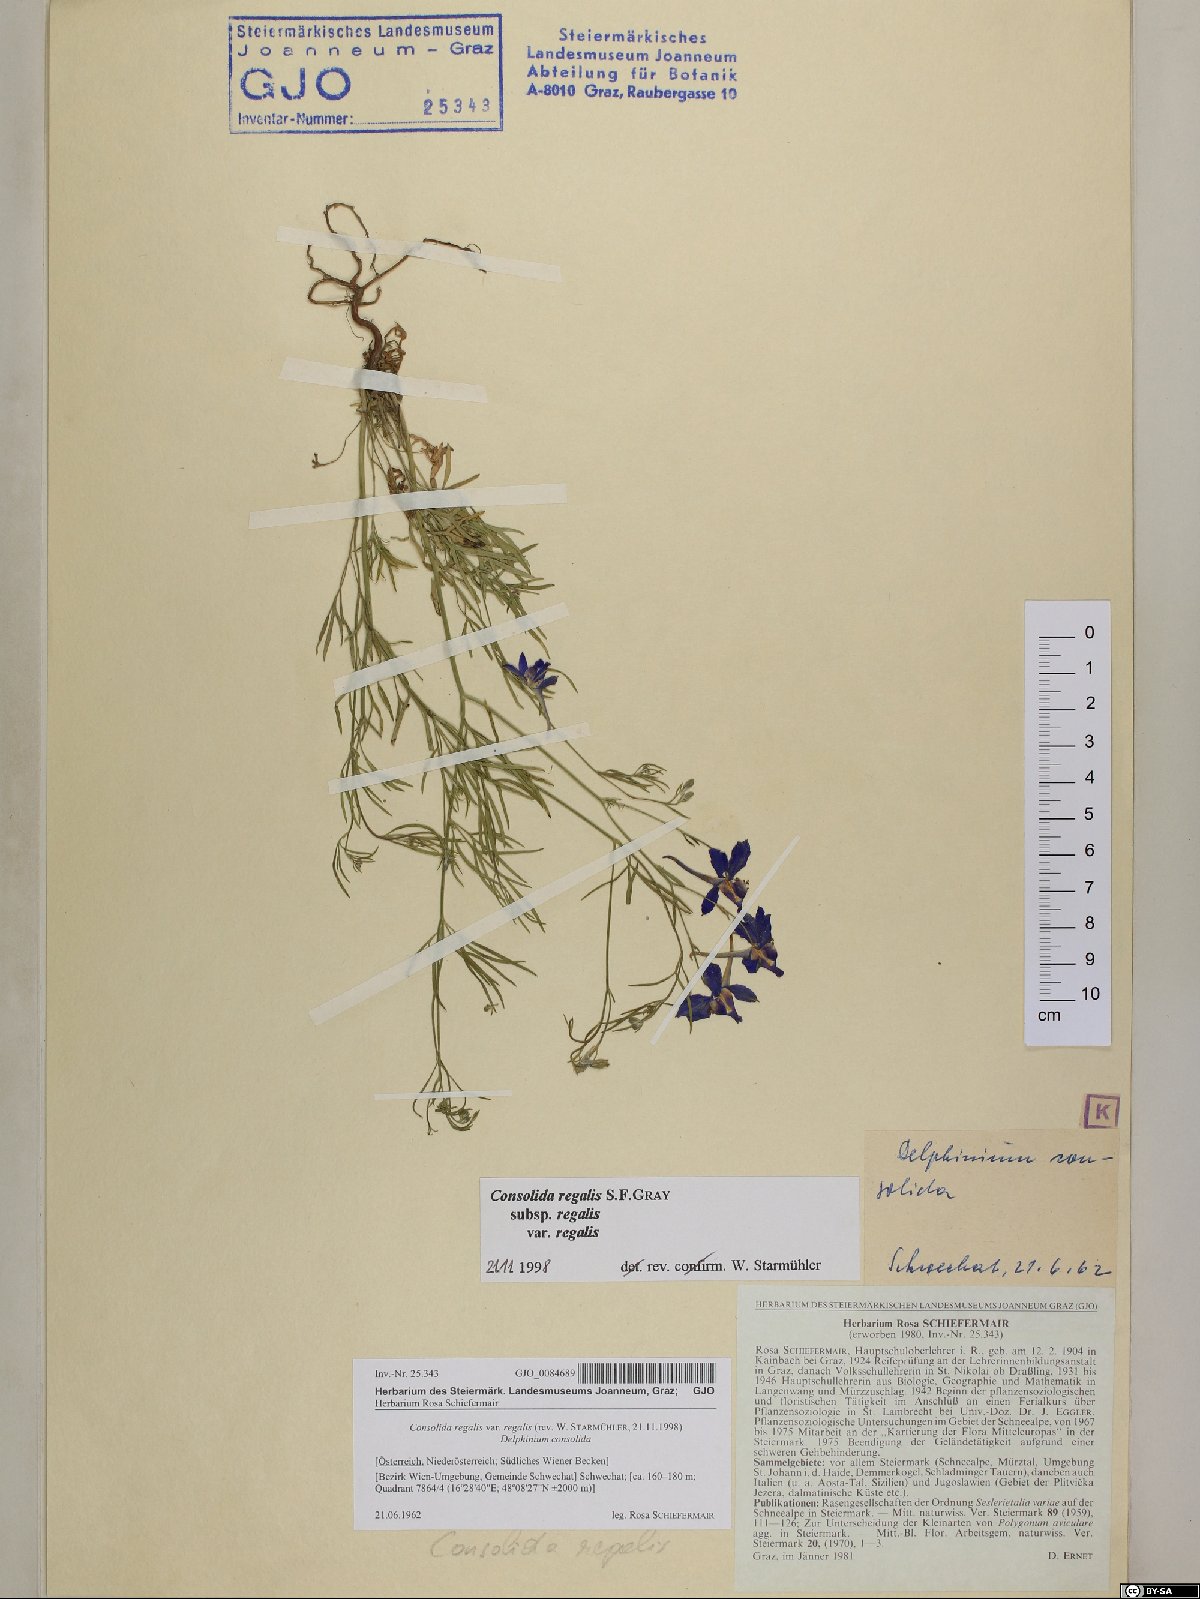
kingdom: Plantae
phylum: Tracheophyta
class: Magnoliopsida
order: Ranunculales
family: Ranunculaceae
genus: Delphinium
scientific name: Delphinium consolida
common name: Branching larkspur
